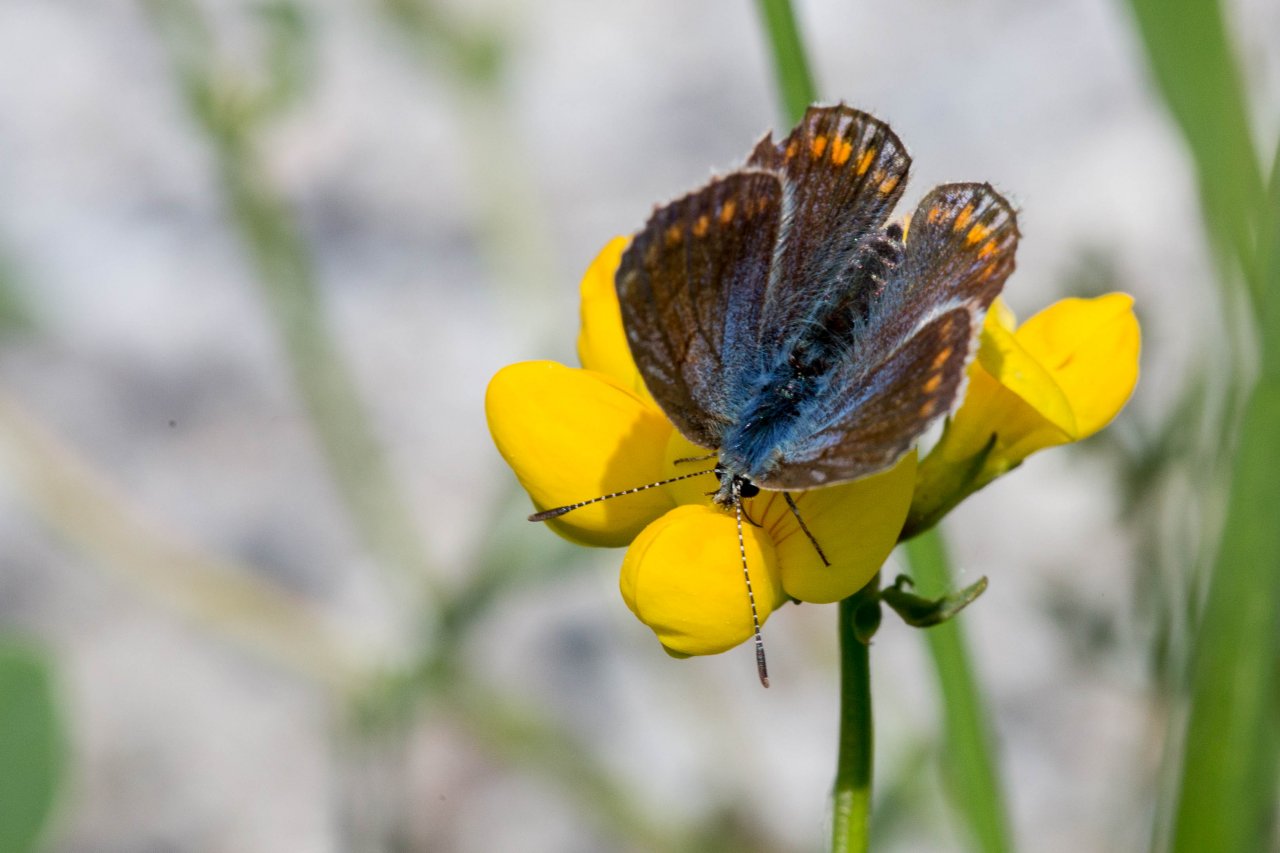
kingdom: Animalia
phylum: Arthropoda
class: Insecta
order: Lepidoptera
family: Lycaenidae
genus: Polyommatus
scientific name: Polyommatus icarus
